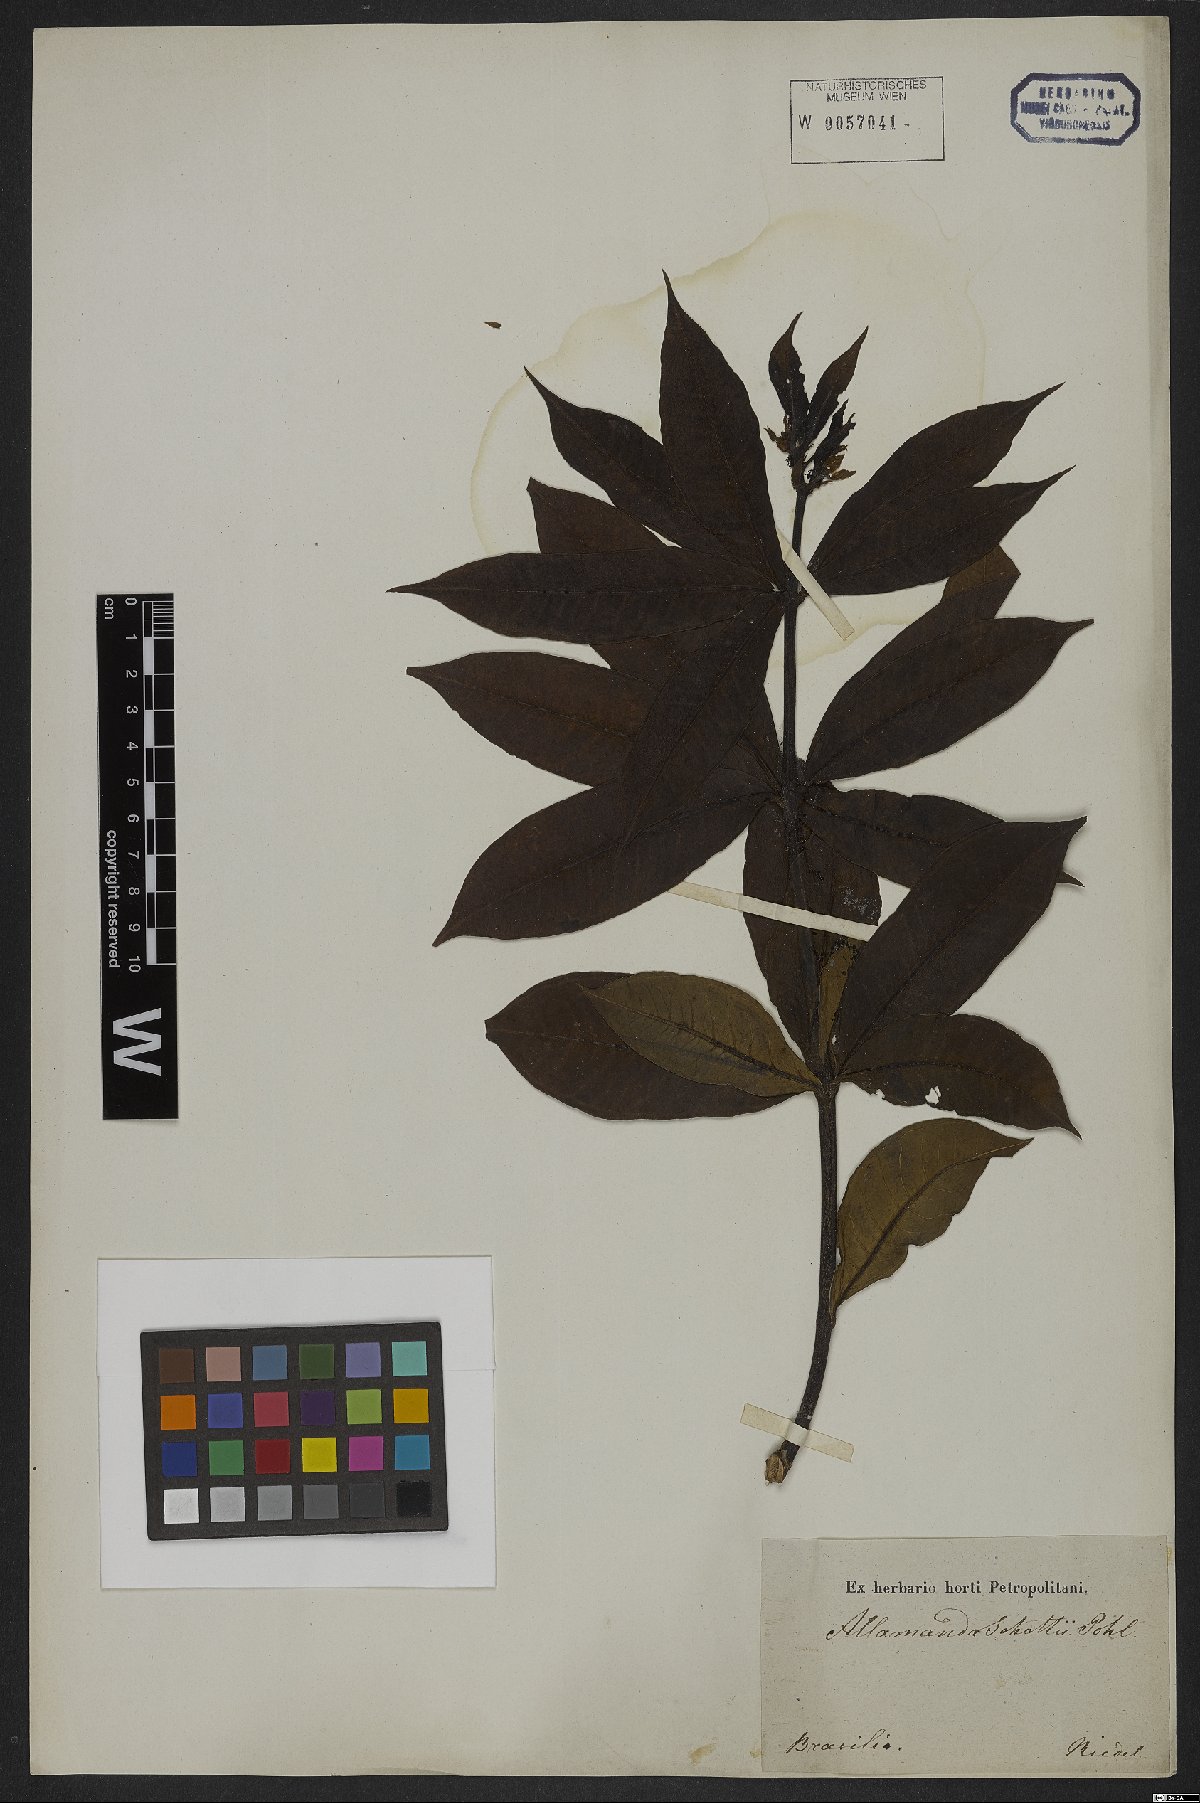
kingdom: Plantae
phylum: Tracheophyta
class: Magnoliopsida
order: Gentianales
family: Apocynaceae
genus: Allamanda
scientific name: Allamanda schottii
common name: Bush allamanda
